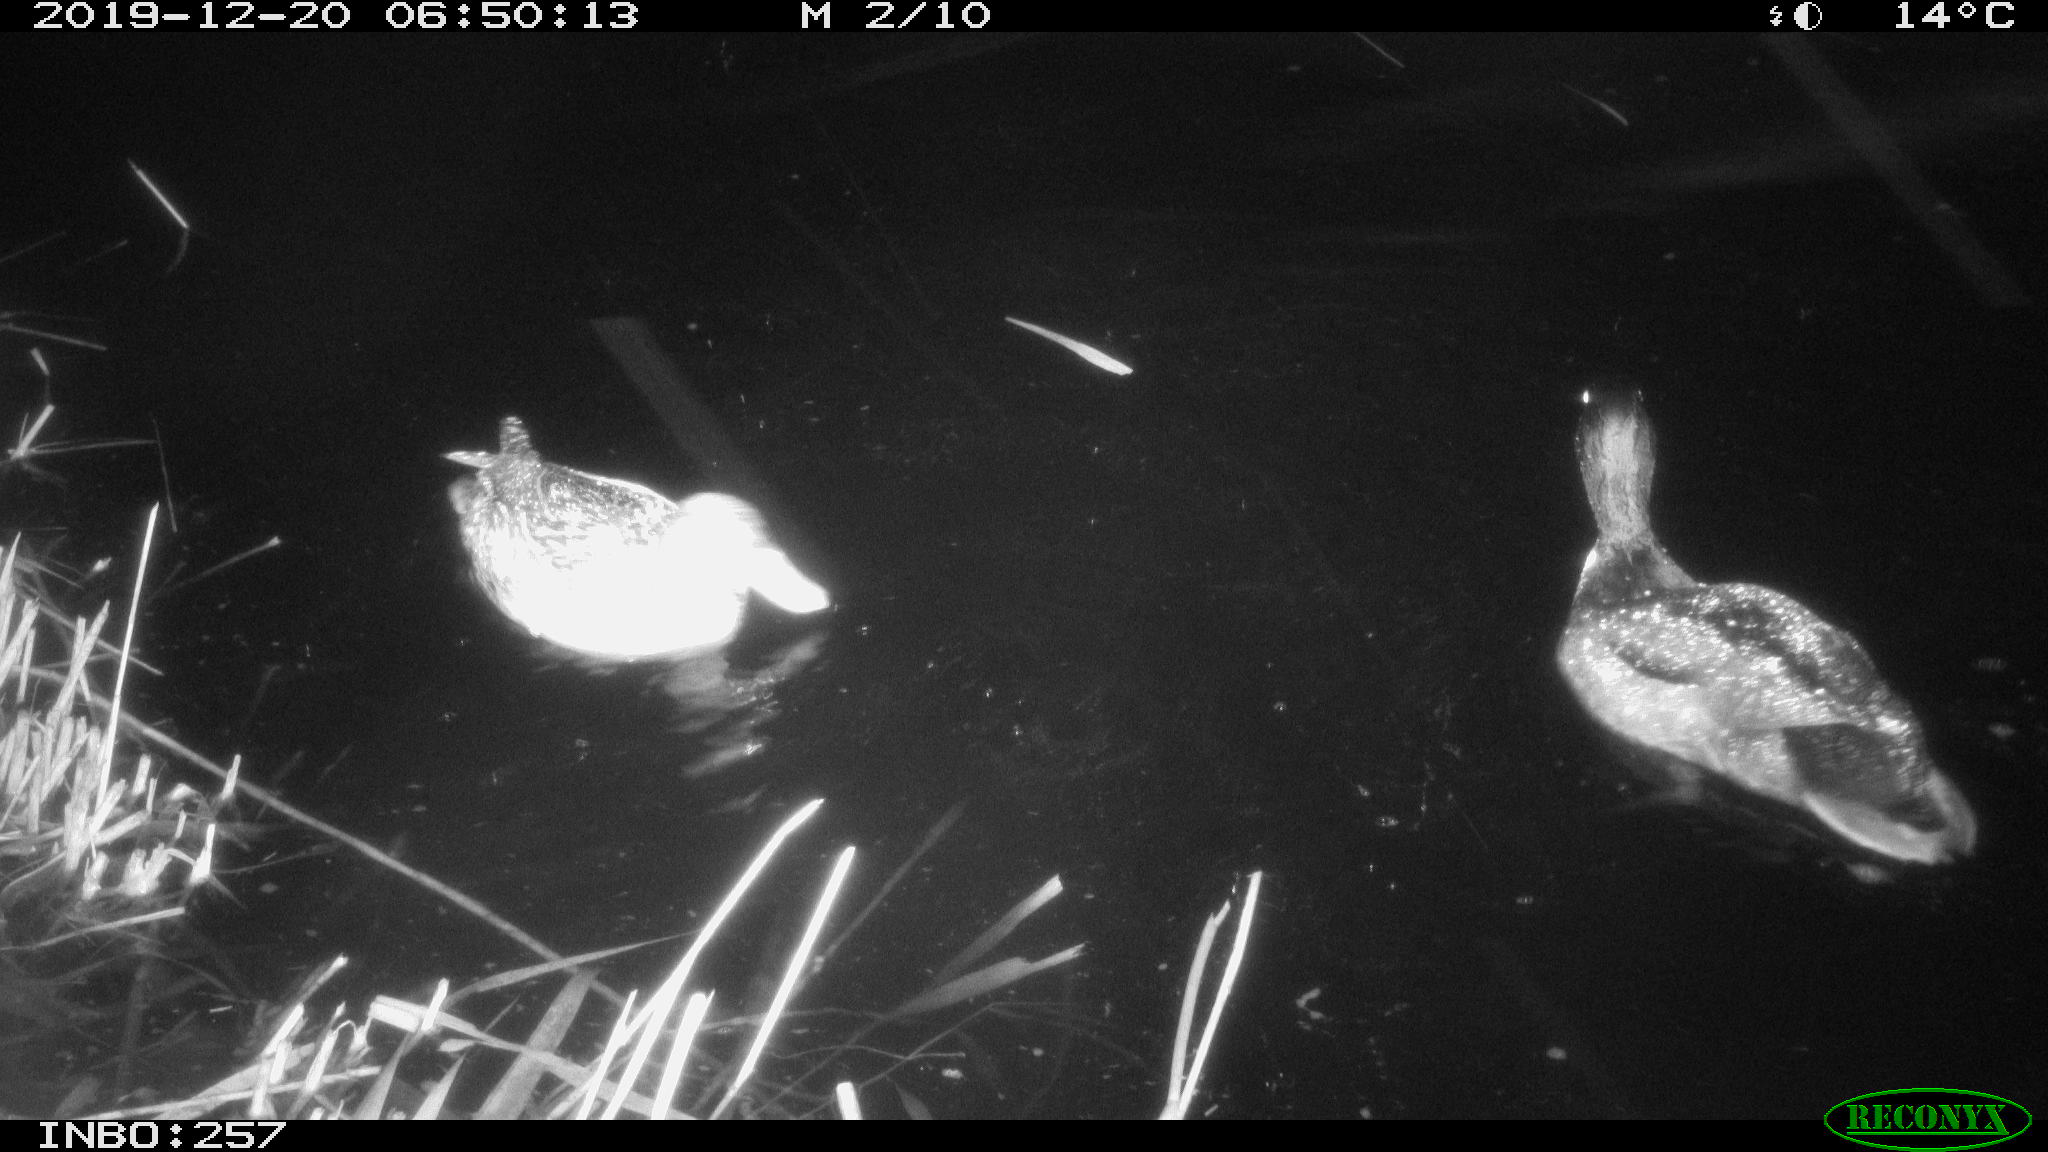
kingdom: Animalia
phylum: Chordata
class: Aves
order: Anseriformes
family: Anatidae
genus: Anas
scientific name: Anas platyrhynchos
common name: Mallard
